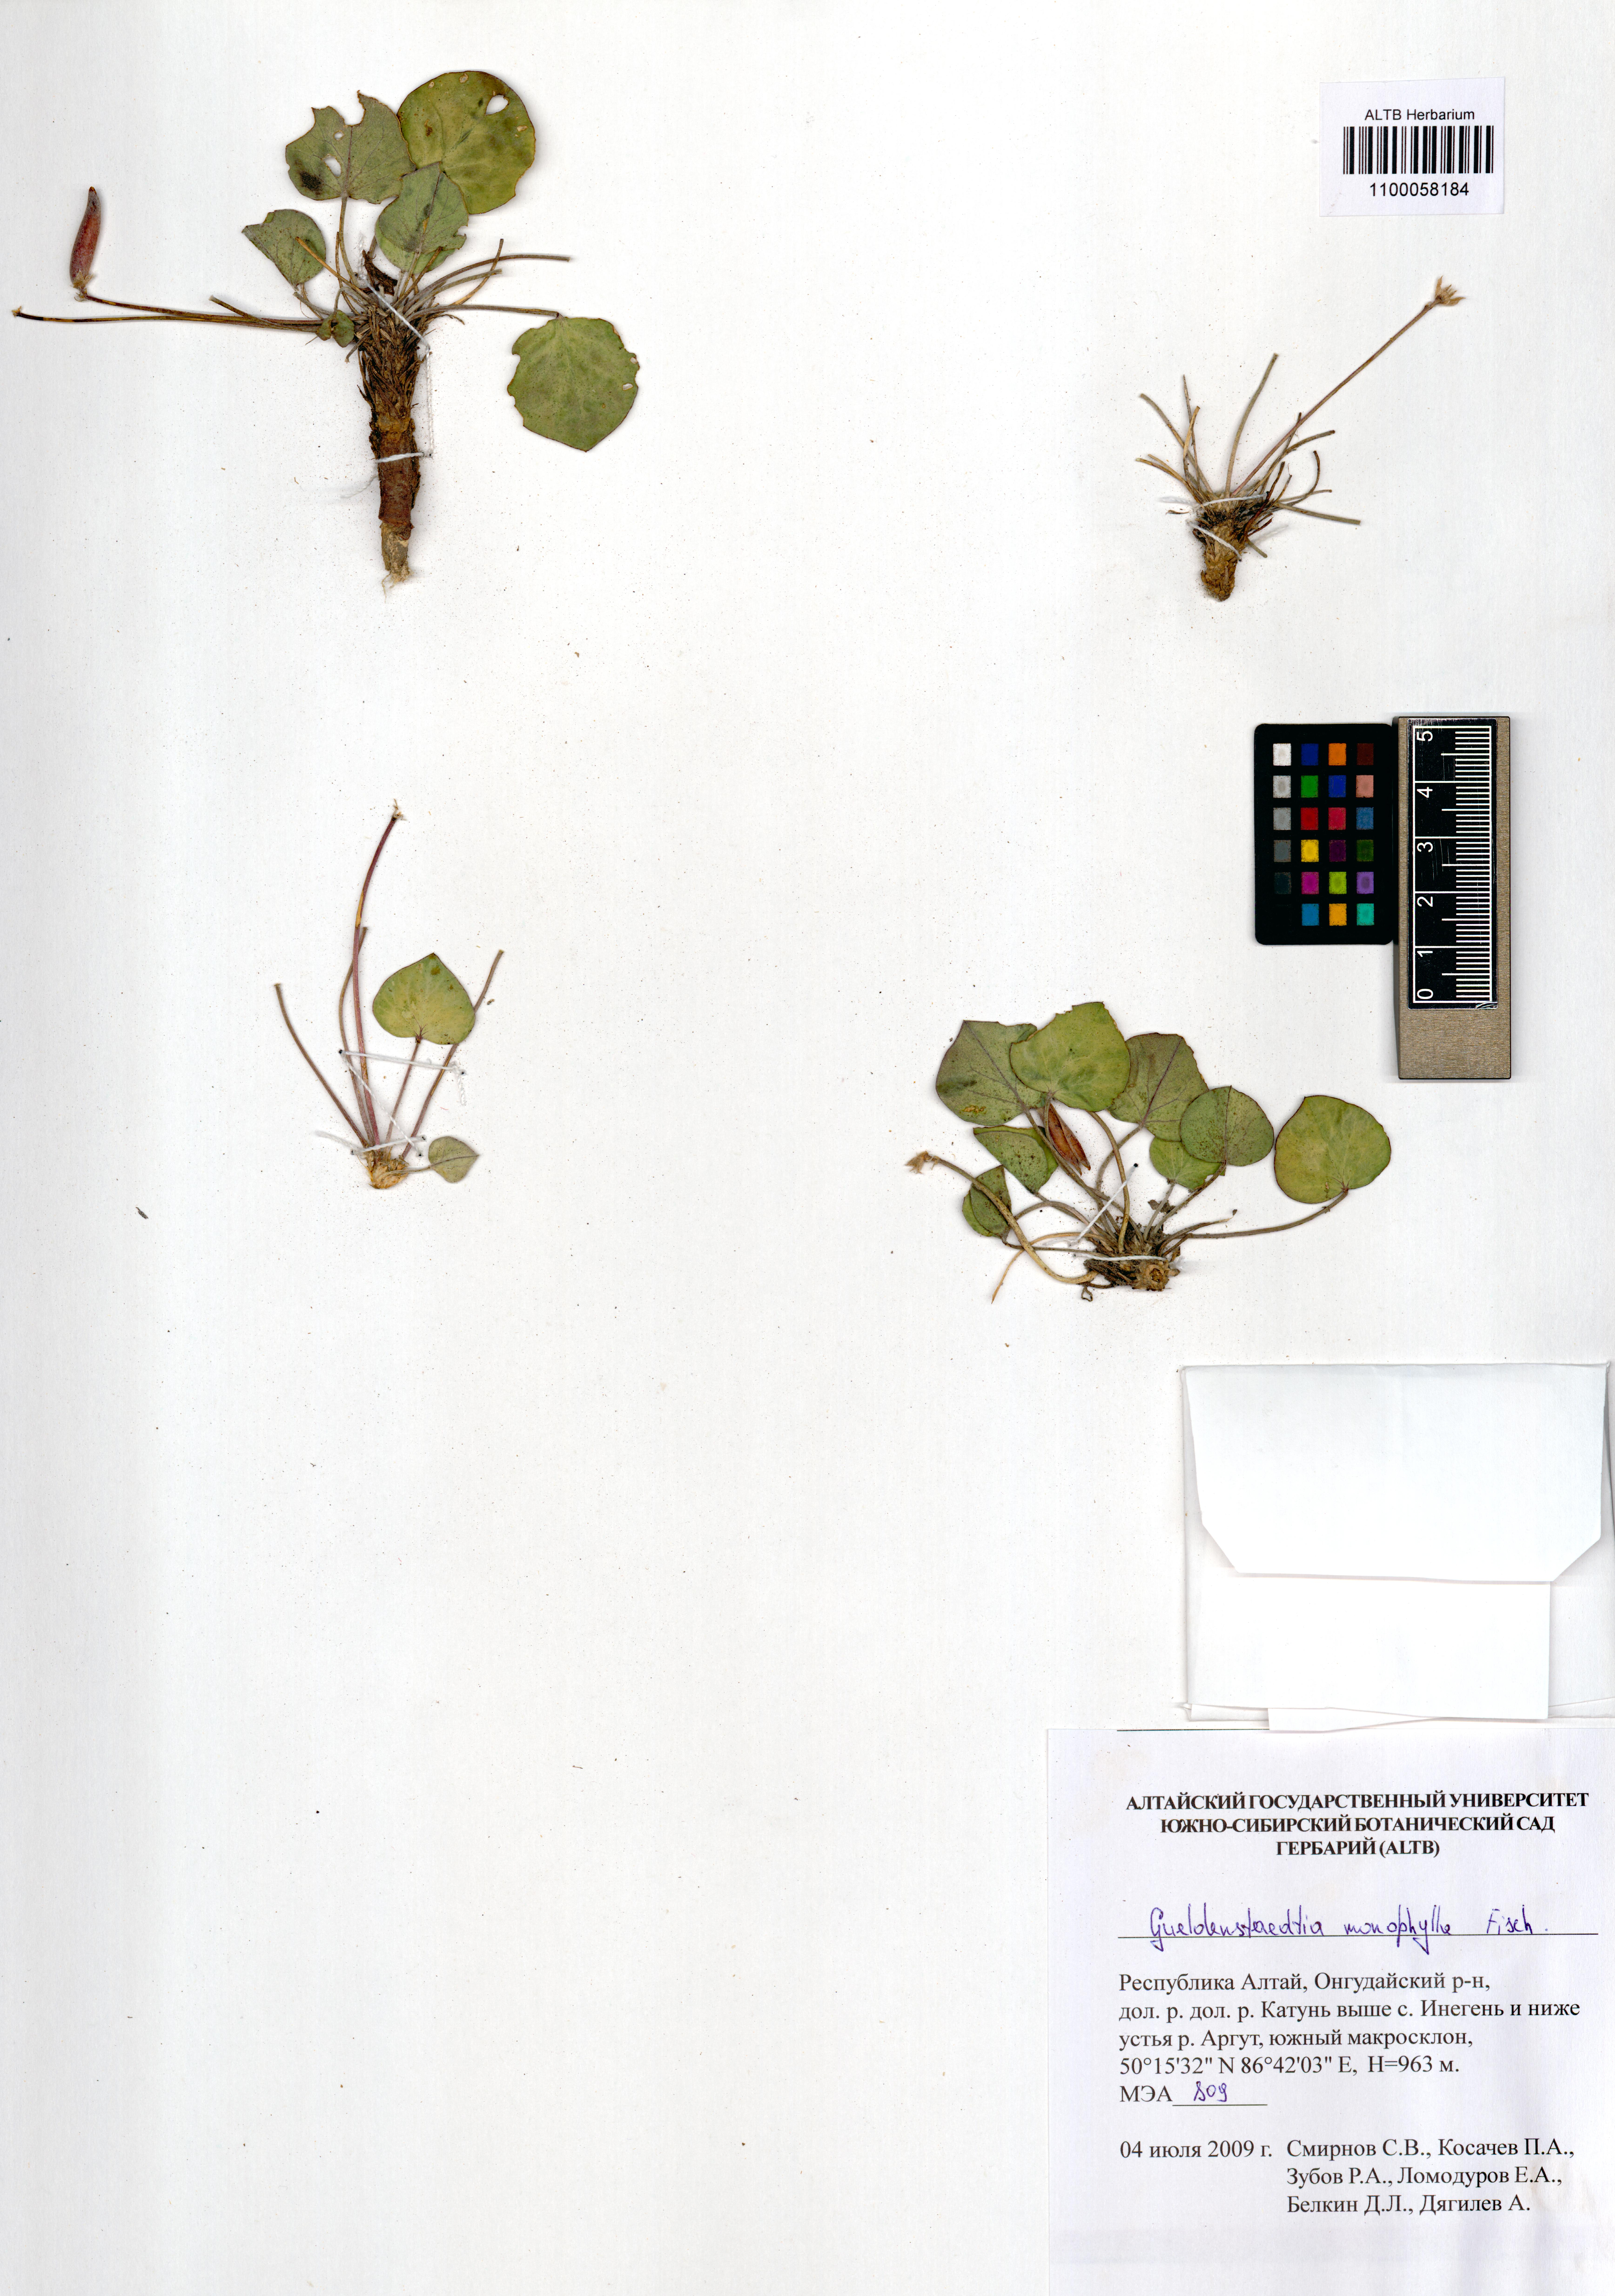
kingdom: Plantae
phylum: Tracheophyta
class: Magnoliopsida
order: Fabales
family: Fabaceae
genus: Gueldenstaedtia
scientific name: Gueldenstaedtia monophylla
